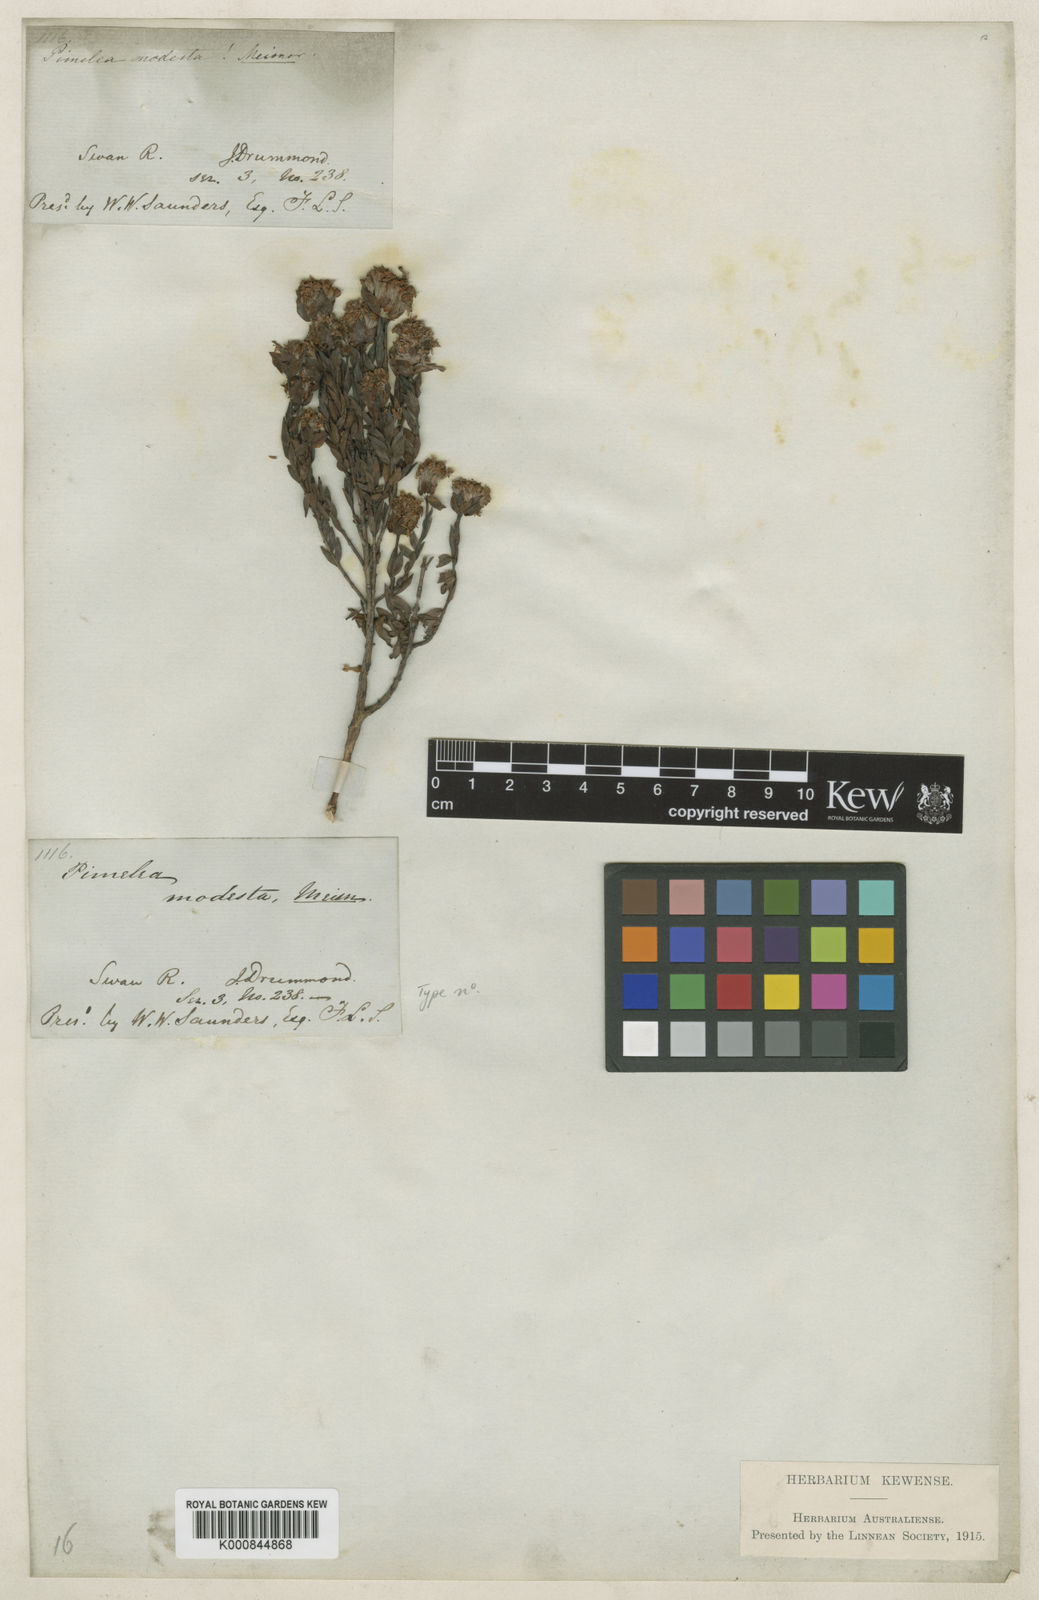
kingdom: Plantae
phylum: Tracheophyta
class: Magnoliopsida
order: Malvales
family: Thymelaeaceae
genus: Pimelea
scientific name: Pimelea brevifolia
